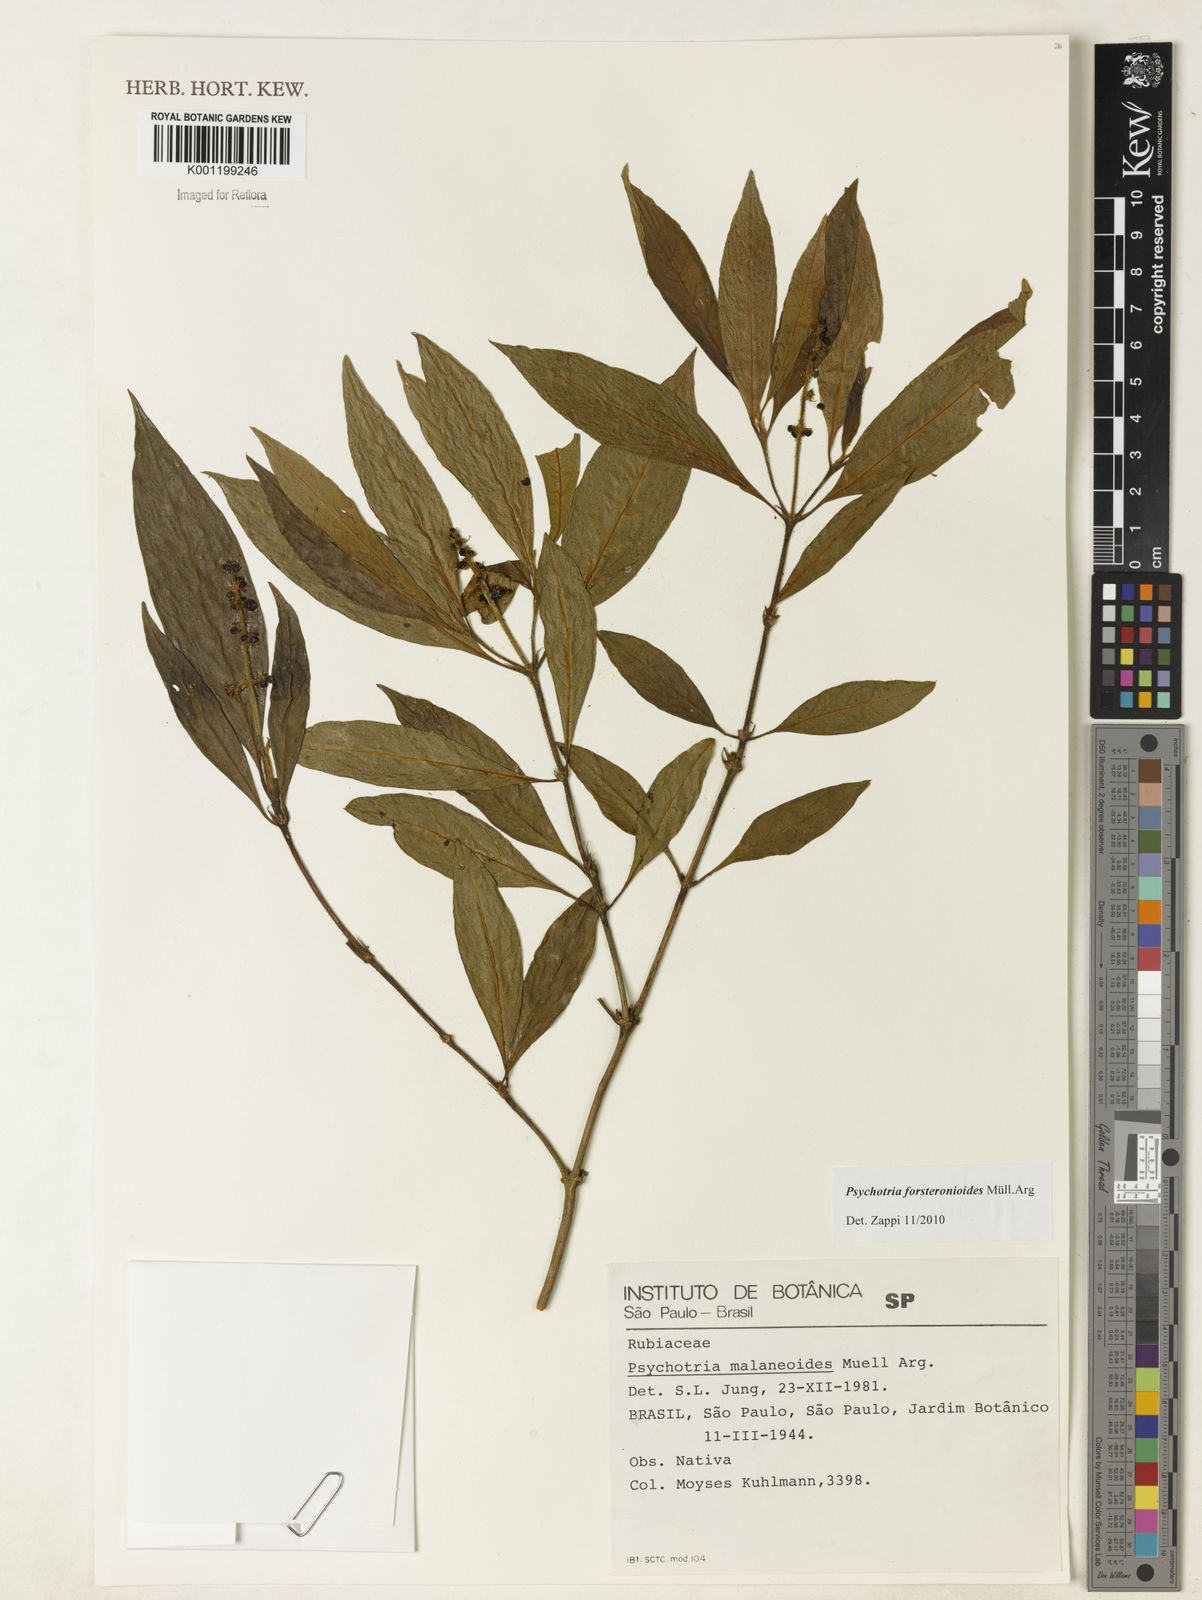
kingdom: Plantae
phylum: Tracheophyta
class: Magnoliopsida
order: Gentianales
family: Rubiaceae
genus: Psychotria
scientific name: Psychotria
